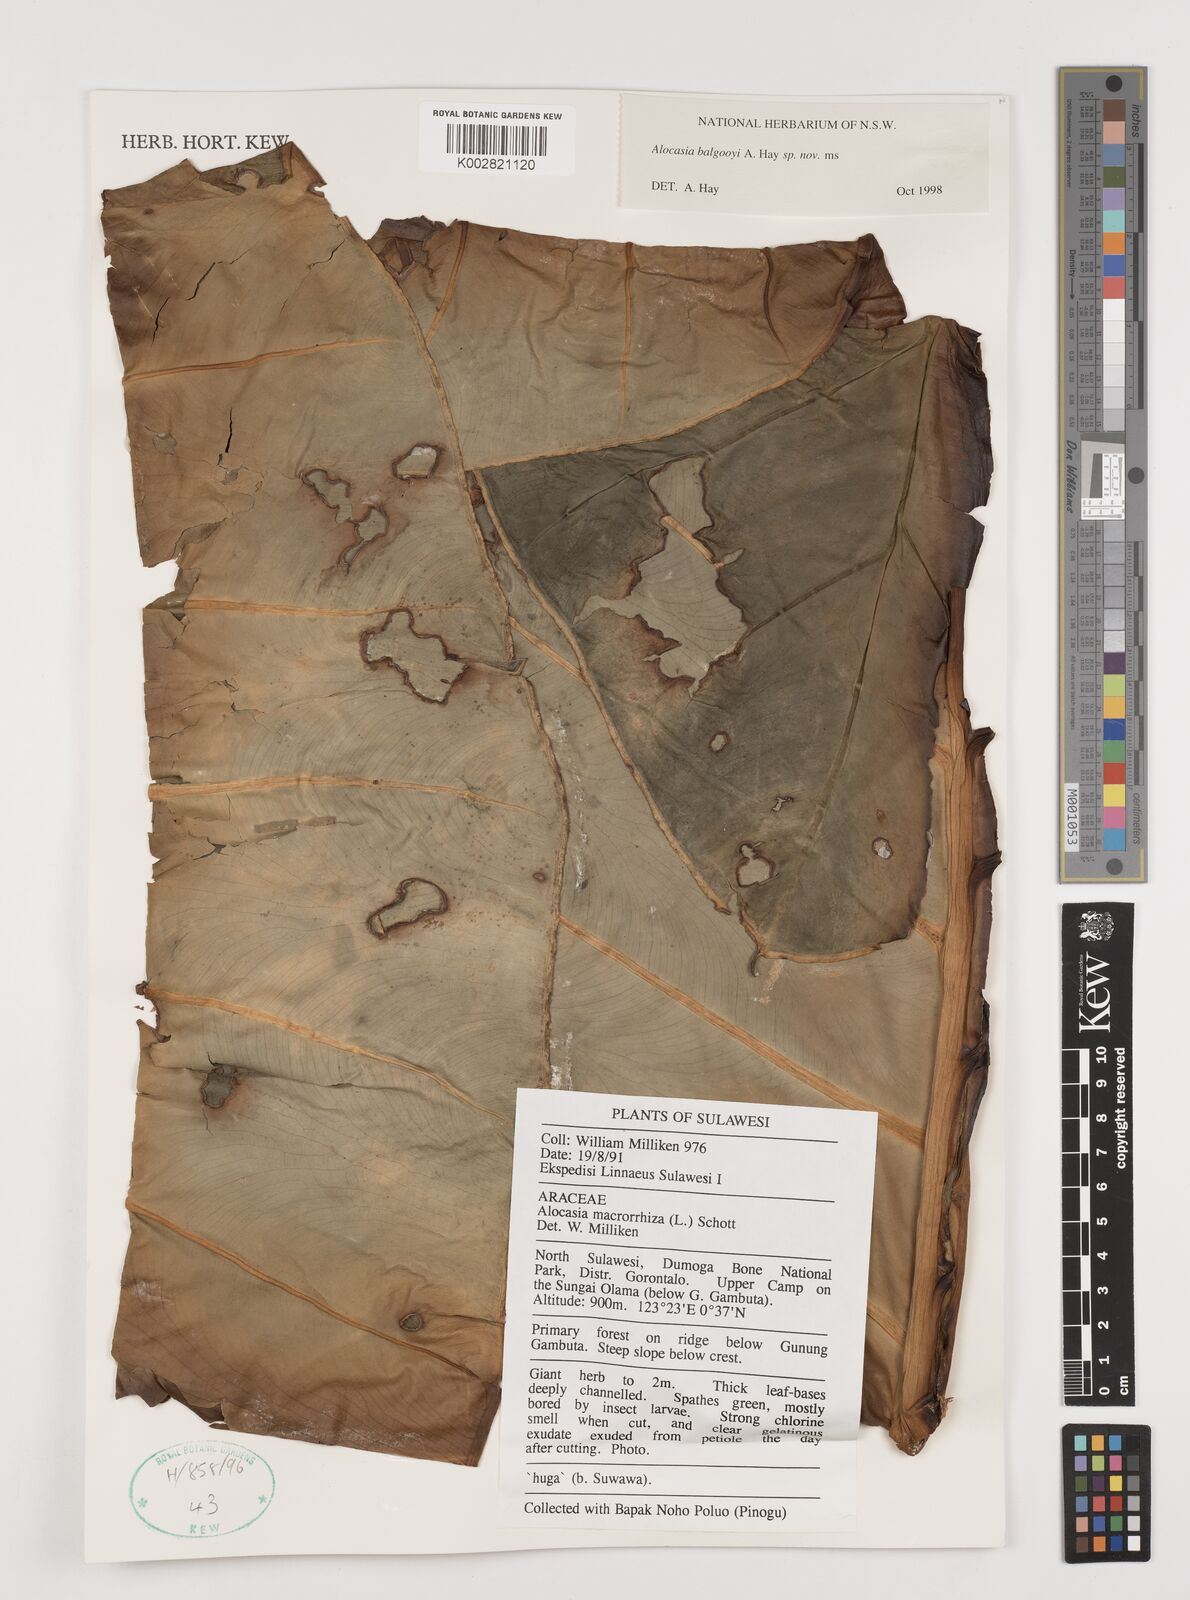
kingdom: Plantae
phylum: Tracheophyta
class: Liliopsida
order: Alismatales
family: Araceae
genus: Alocasia
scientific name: Alocasia balgooyi
